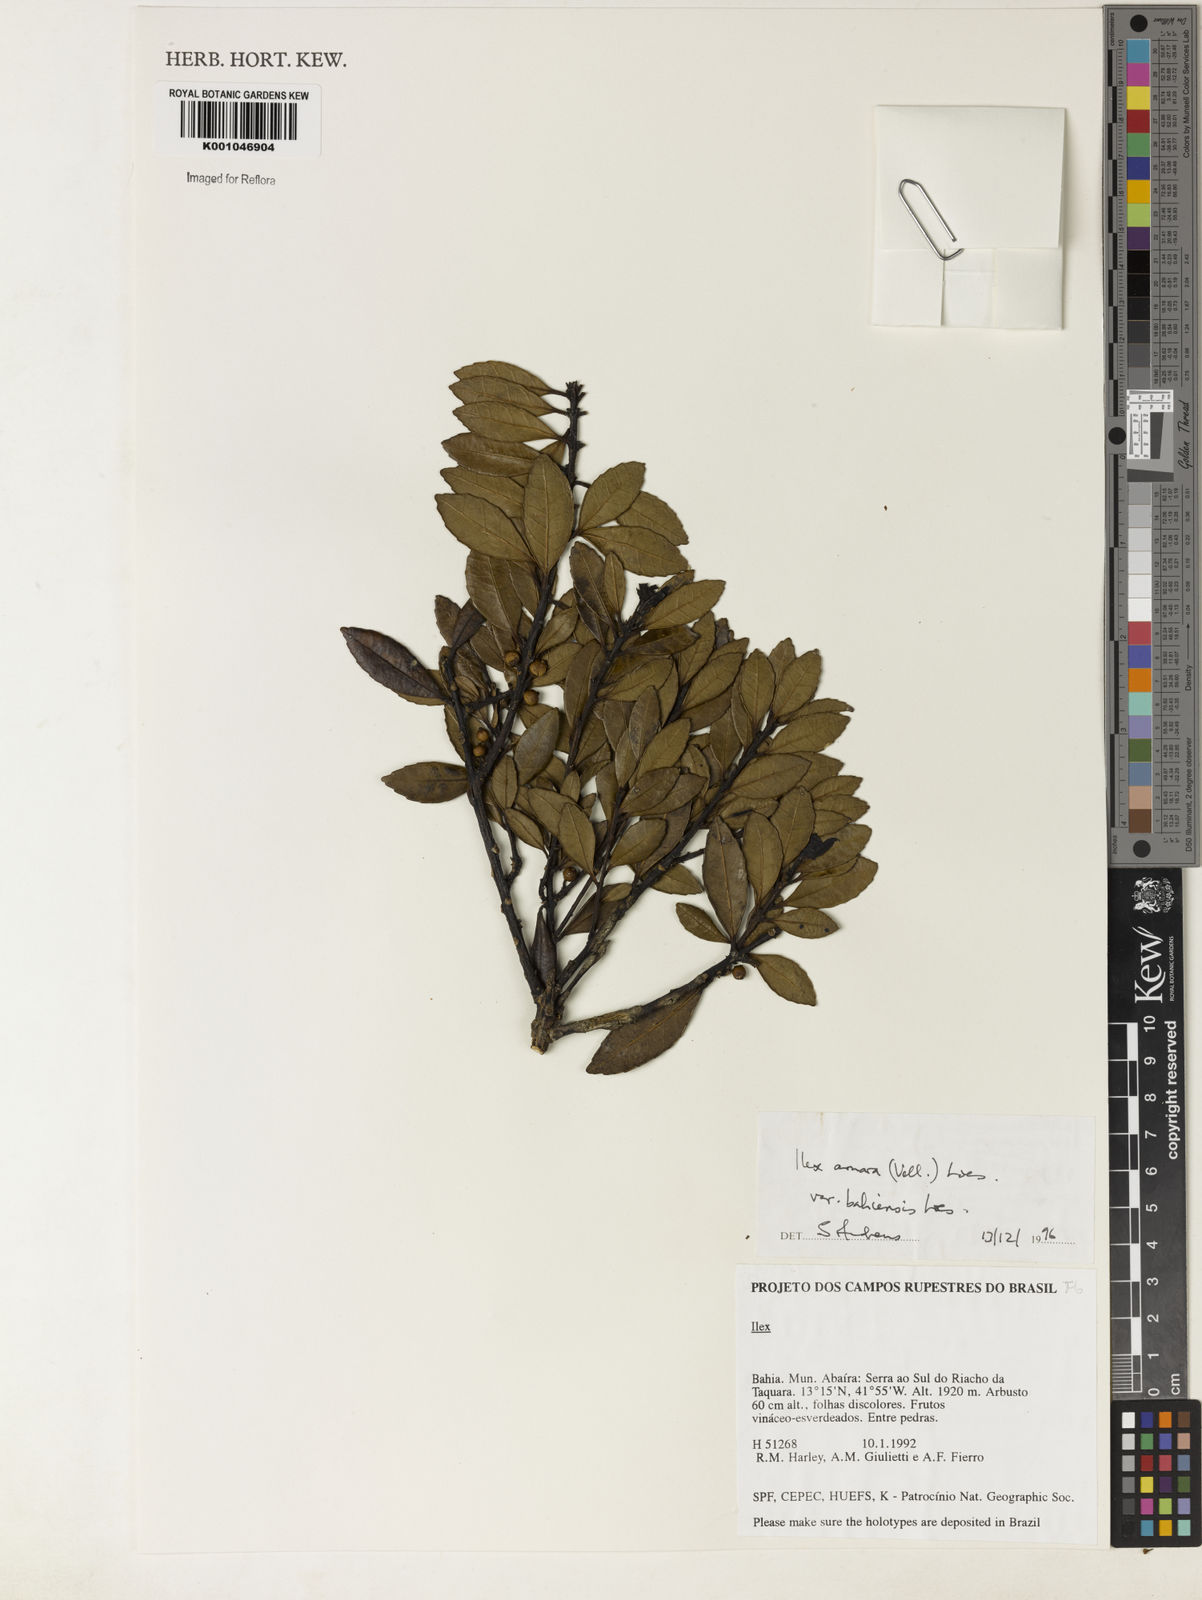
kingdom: Plantae
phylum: Tracheophyta
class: Magnoliopsida
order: Aquifoliales
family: Aquifoliaceae
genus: Ilex
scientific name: Ilex dumosa
